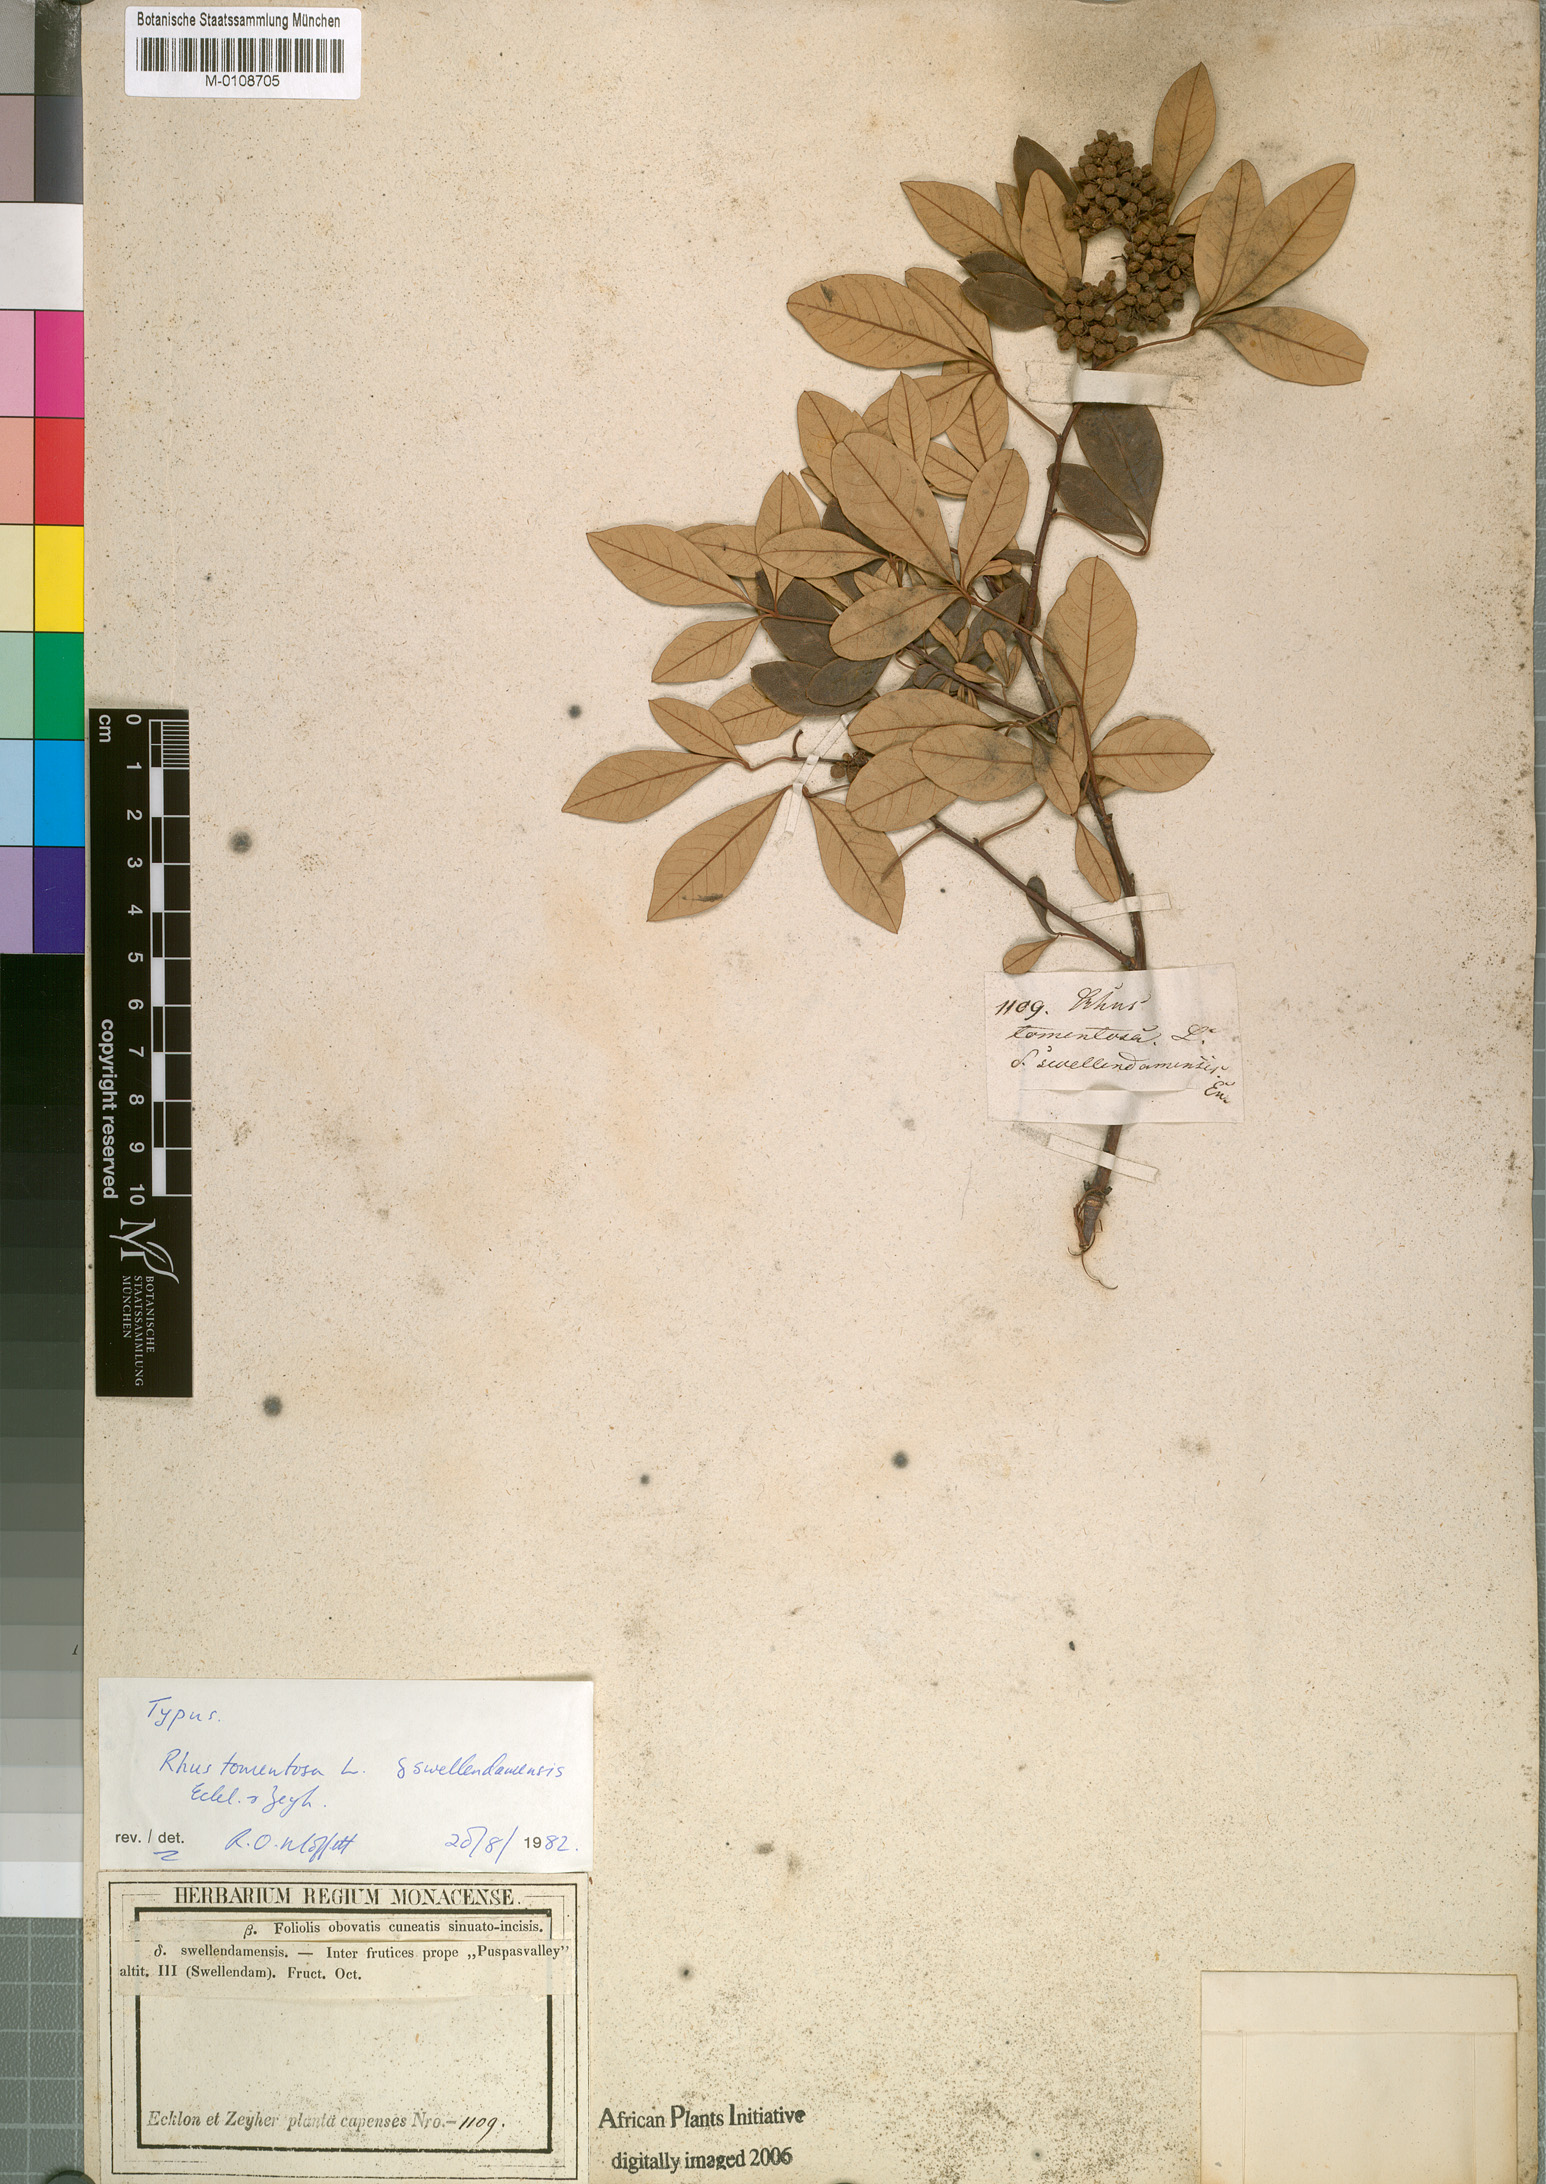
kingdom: Plantae
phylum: Tracheophyta
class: Magnoliopsida
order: Sapindales
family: Anacardiaceae
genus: Searsia
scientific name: Searsia tomentosa
